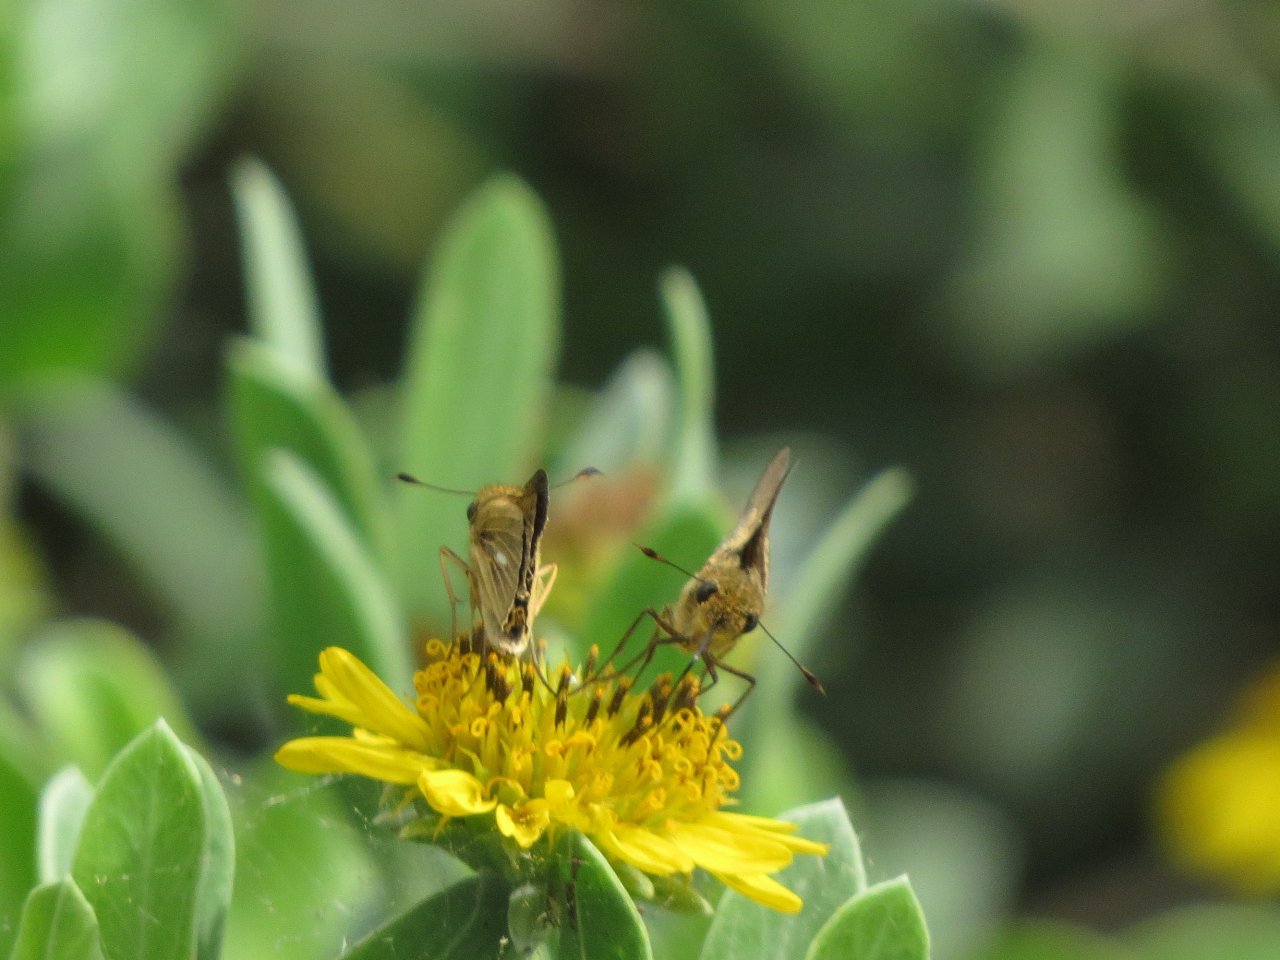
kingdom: Animalia
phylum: Arthropoda
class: Insecta
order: Lepidoptera
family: Hesperiidae
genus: Panoquina
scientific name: Panoquina panoquin
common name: Salt Marsh Skipper
